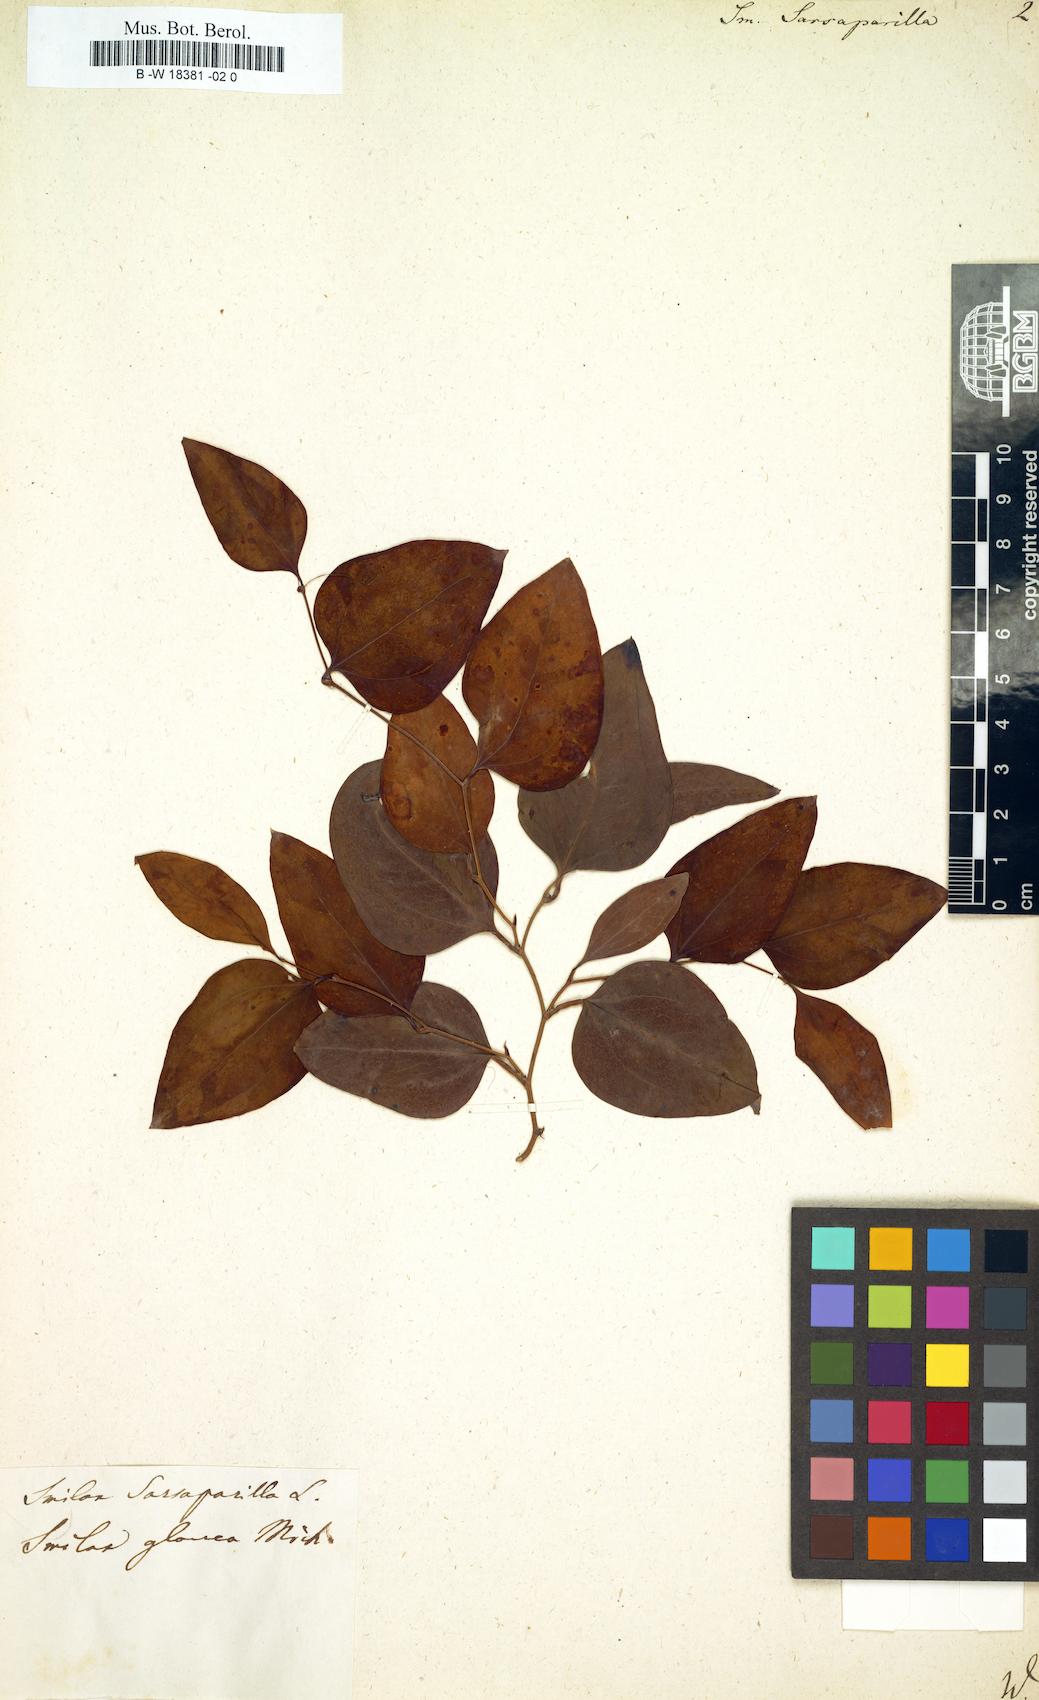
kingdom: Plantae
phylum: Tracheophyta
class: Liliopsida
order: Liliales
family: Smilacaceae
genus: Smilax
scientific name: Smilax glauca
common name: Cat greenbrier
